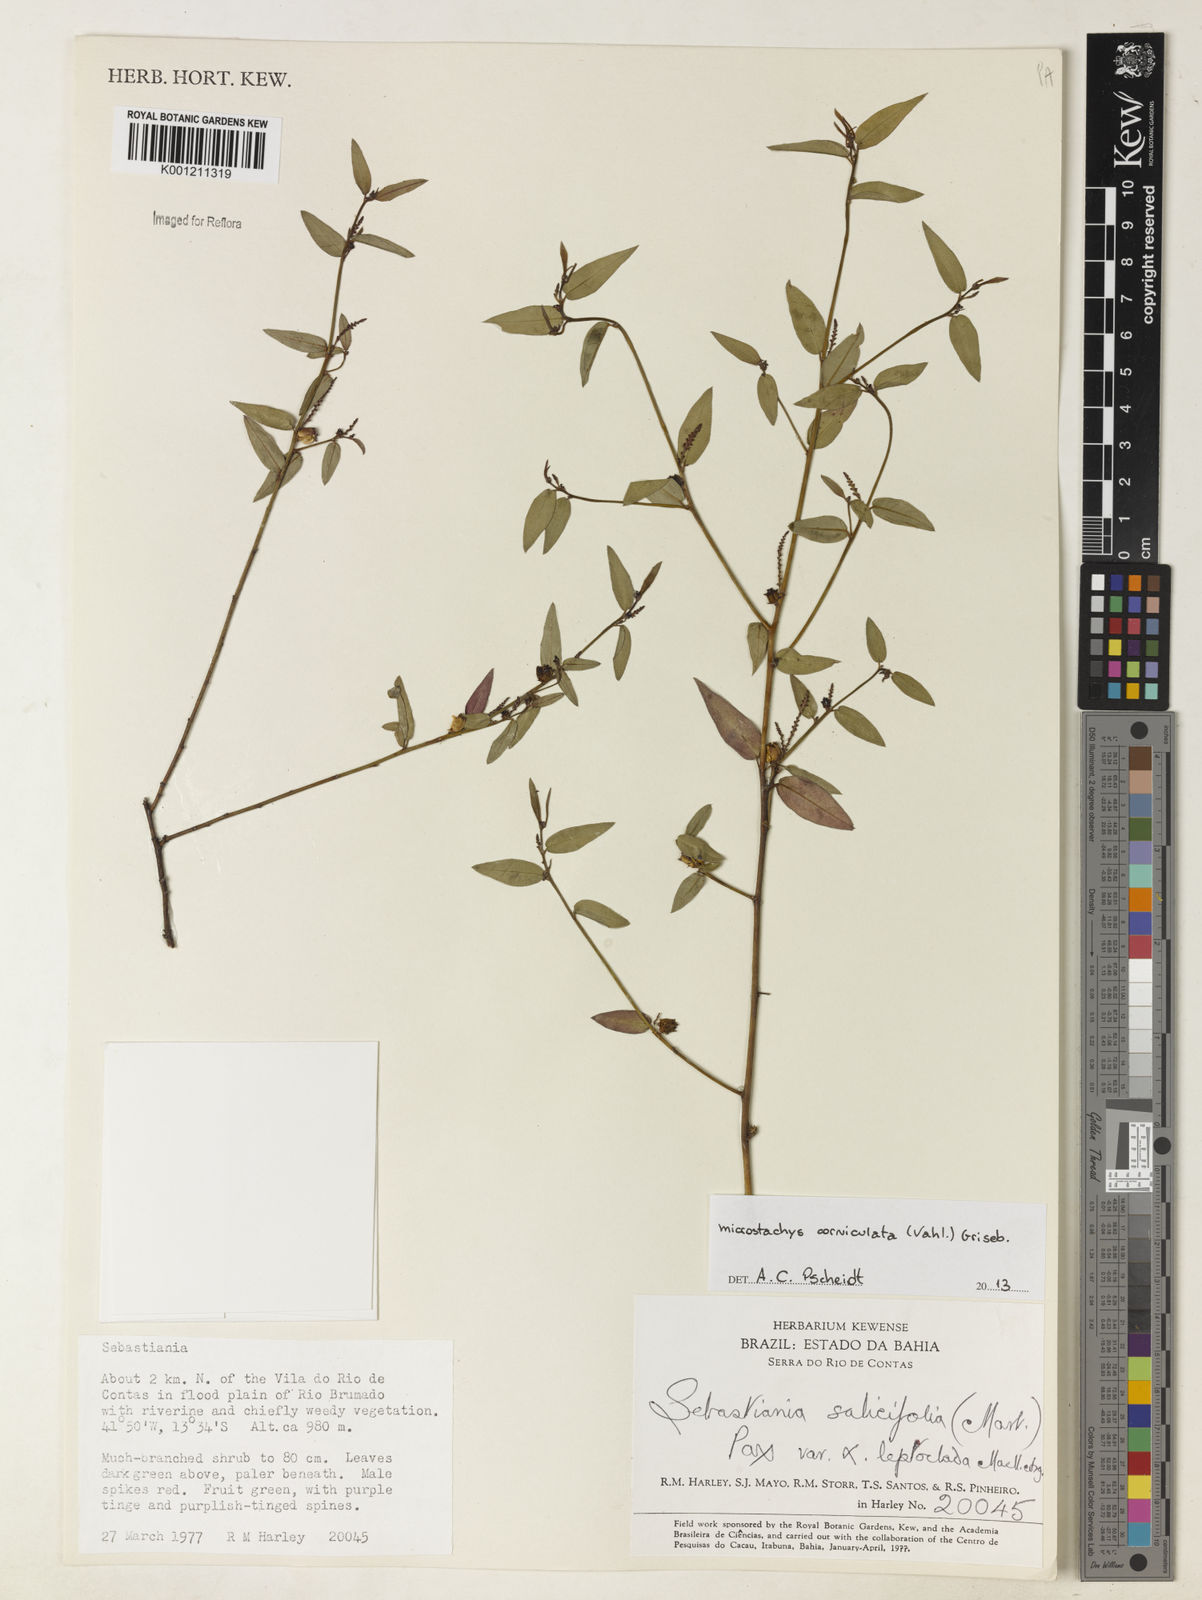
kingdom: Plantae
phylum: Tracheophyta
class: Magnoliopsida
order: Malpighiales
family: Euphorbiaceae
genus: Microstachys
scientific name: Microstachys corniculata
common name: Hato tejas
